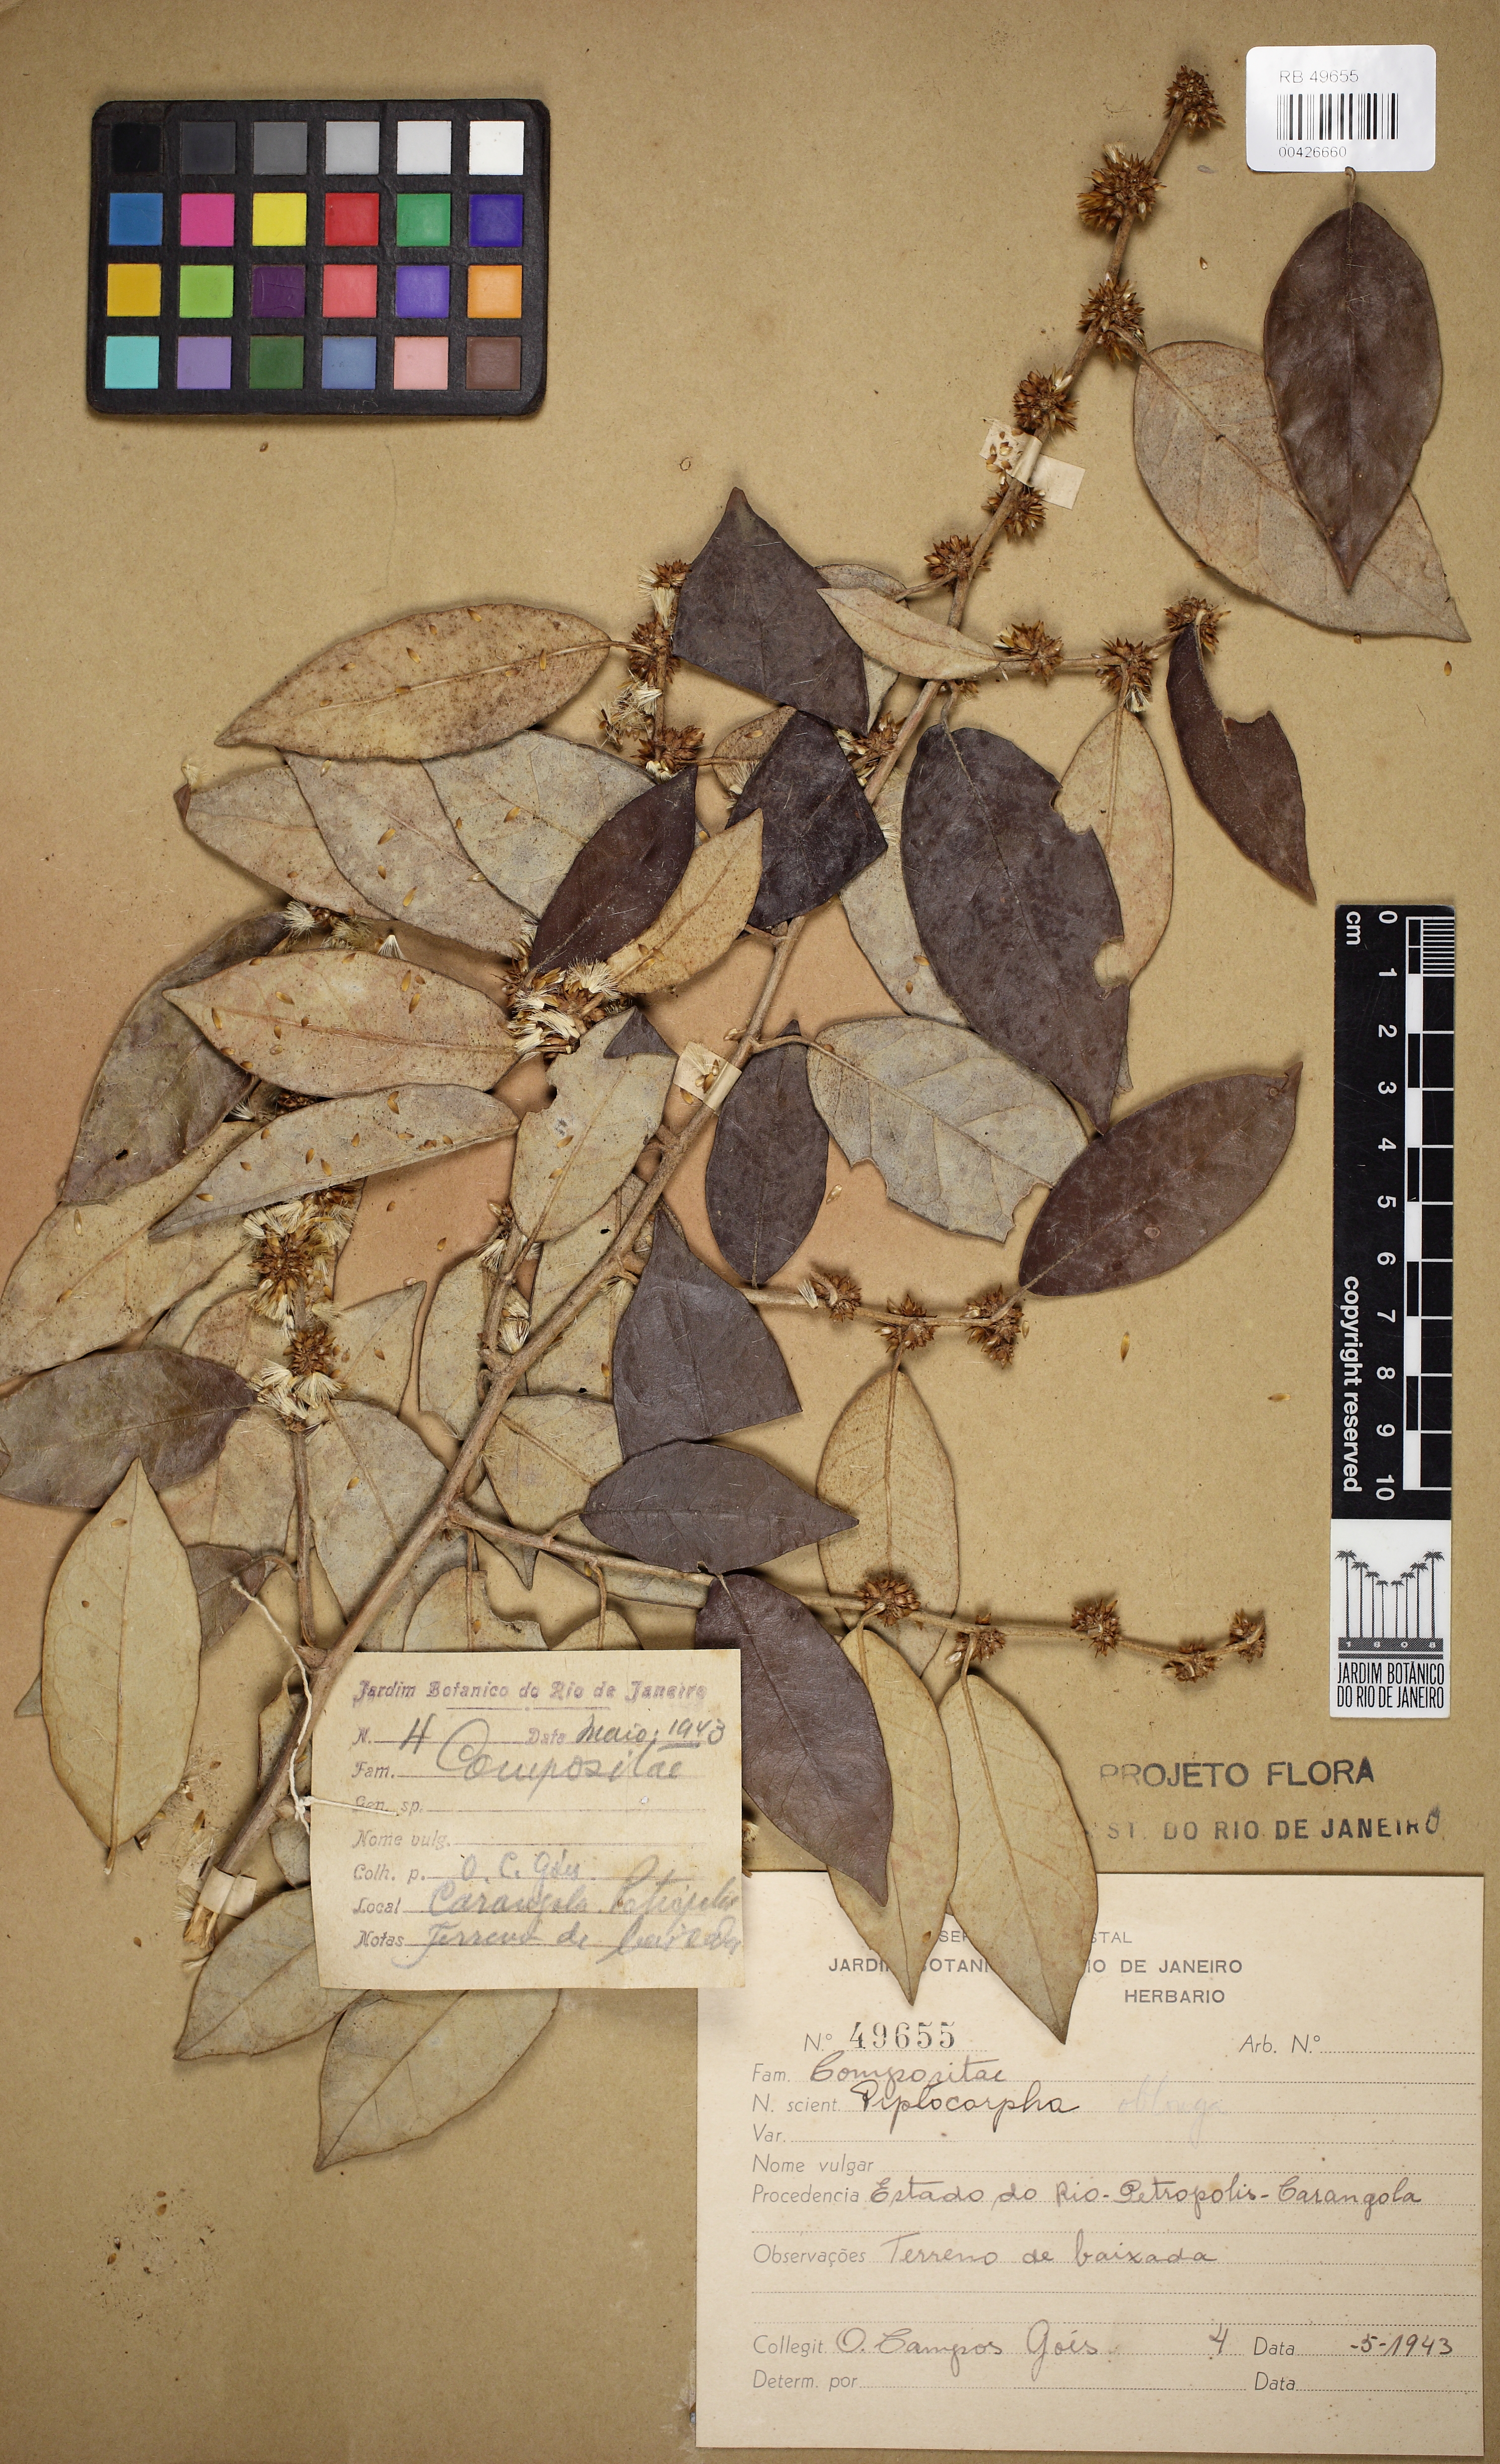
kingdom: Plantae
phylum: Tracheophyta
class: Magnoliopsida
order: Asterales
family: Asteraceae
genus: Piptocarpha
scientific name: Piptocarpha lucida
